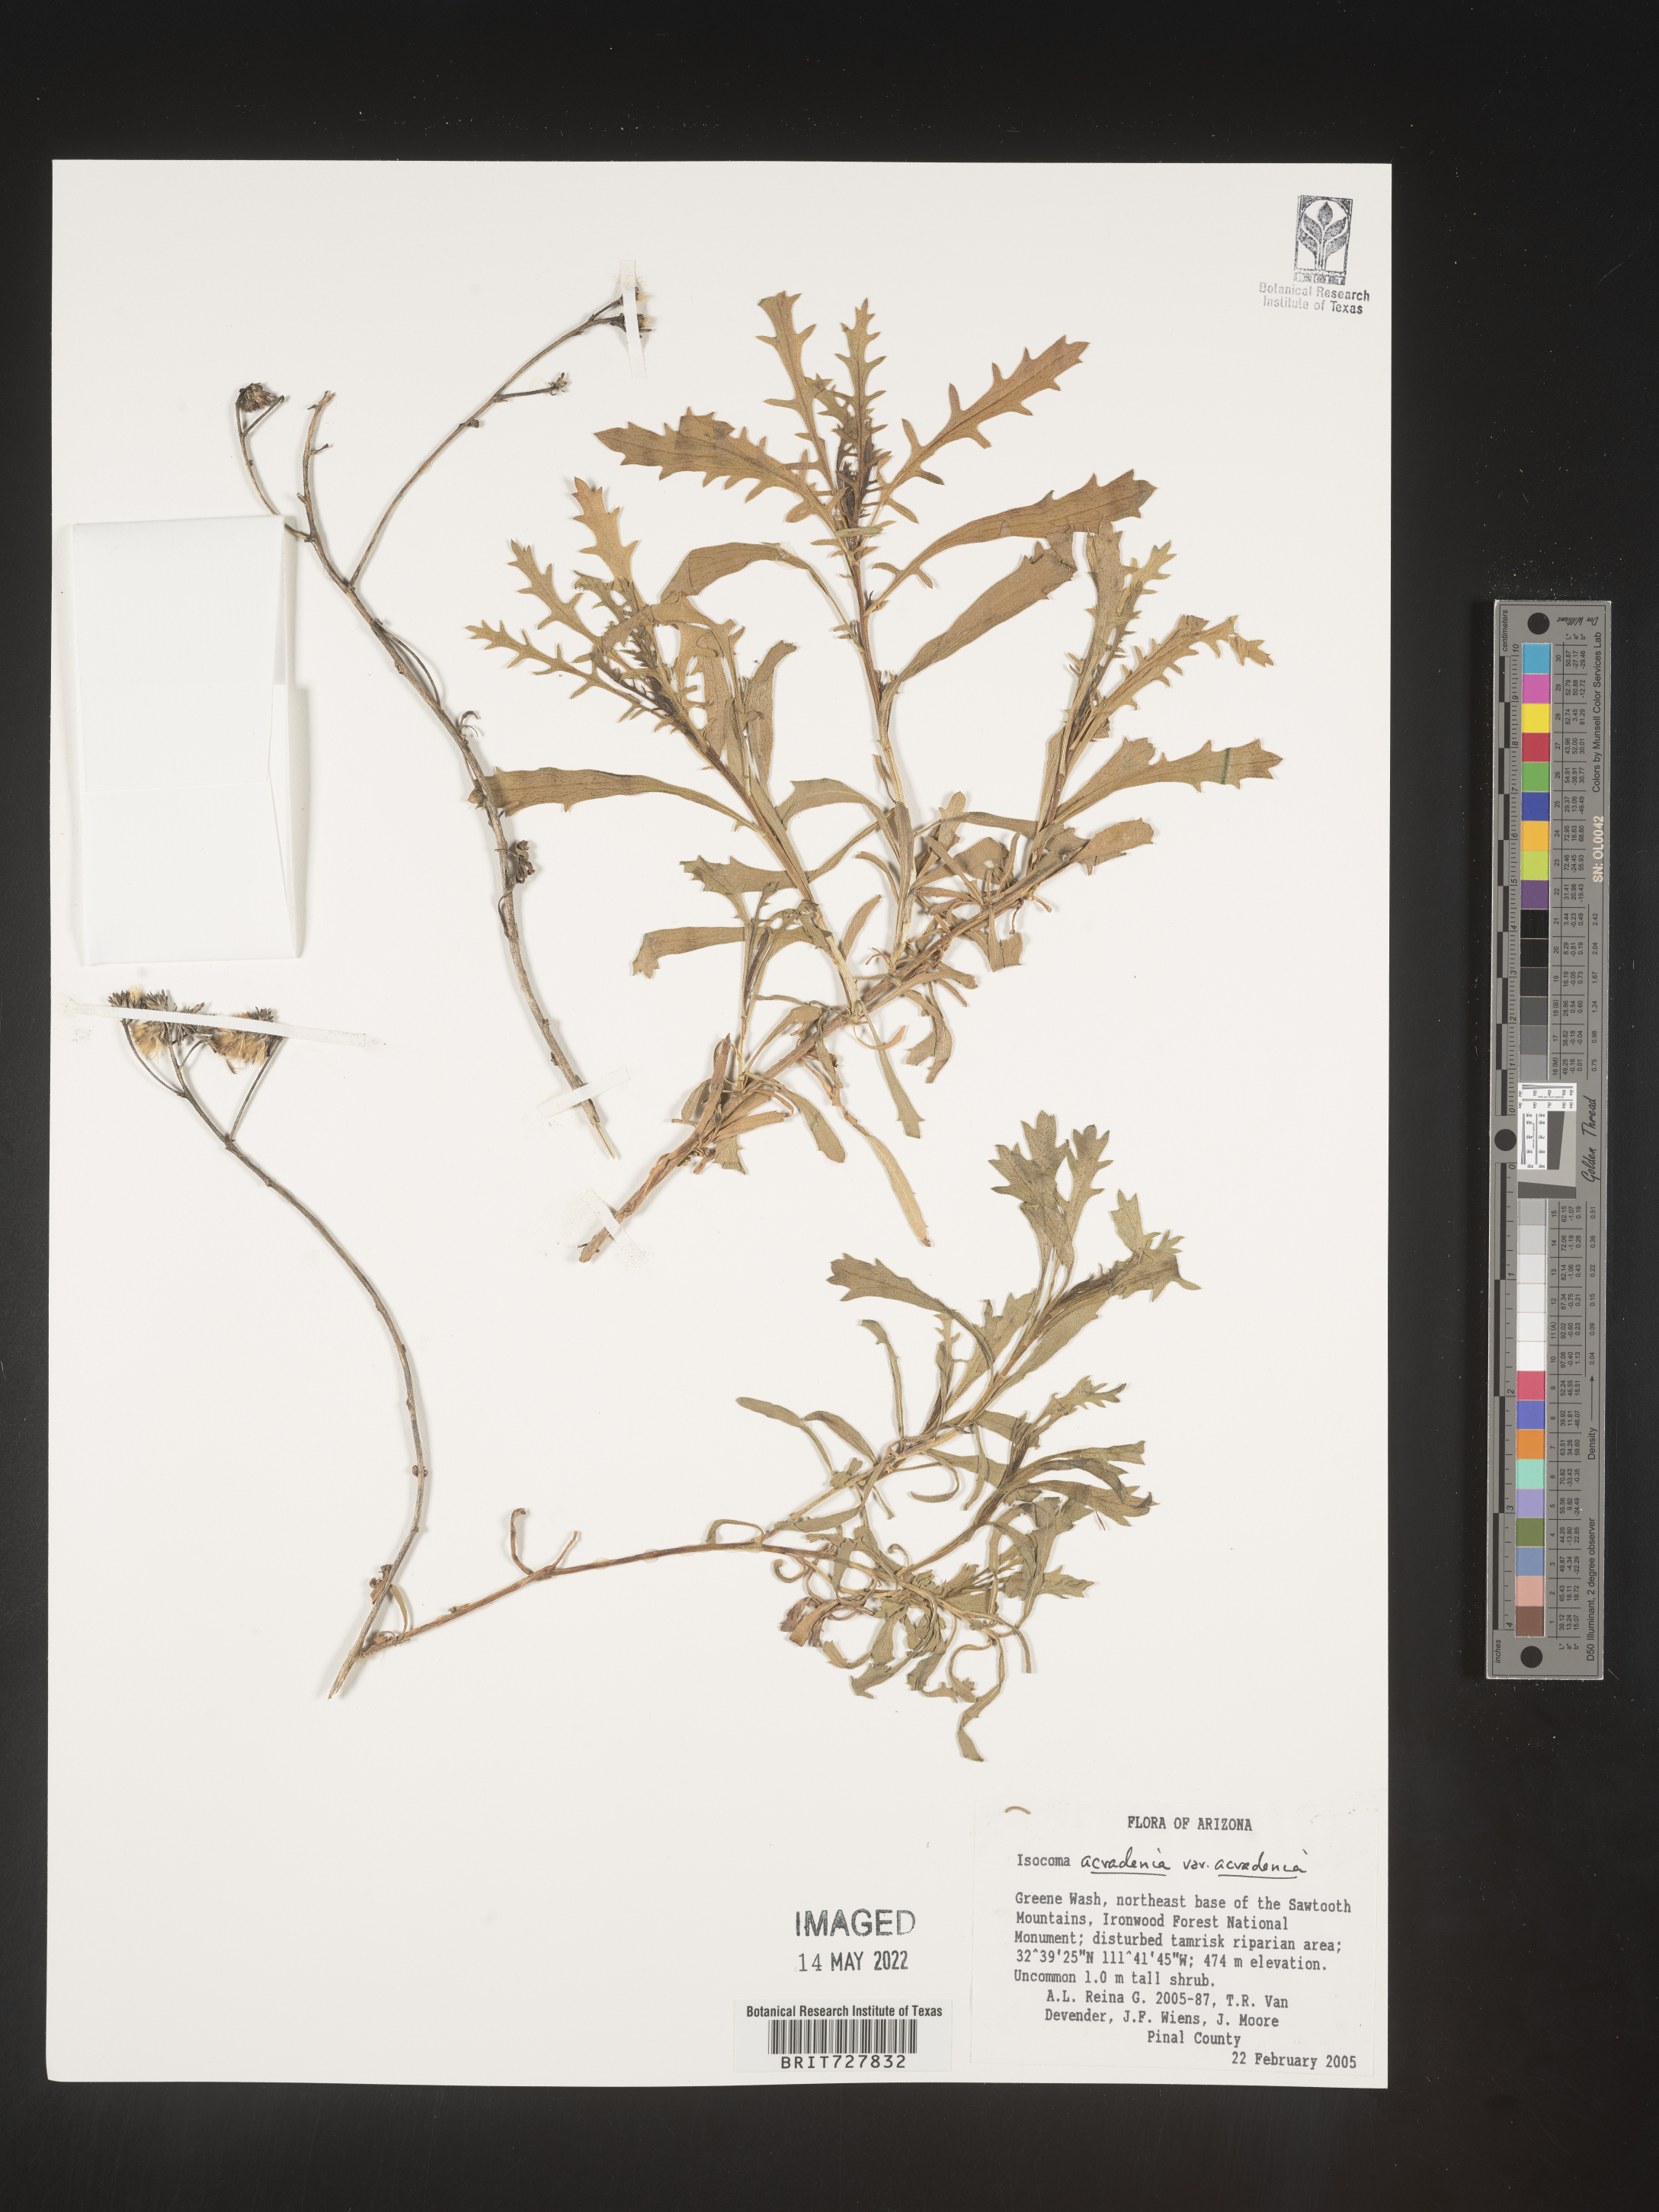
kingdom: Plantae
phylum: Tracheophyta
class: Magnoliopsida
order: Asterales
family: Asteraceae
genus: Isocoma
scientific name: Isocoma acradenia
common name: Alkali jimmyweed
